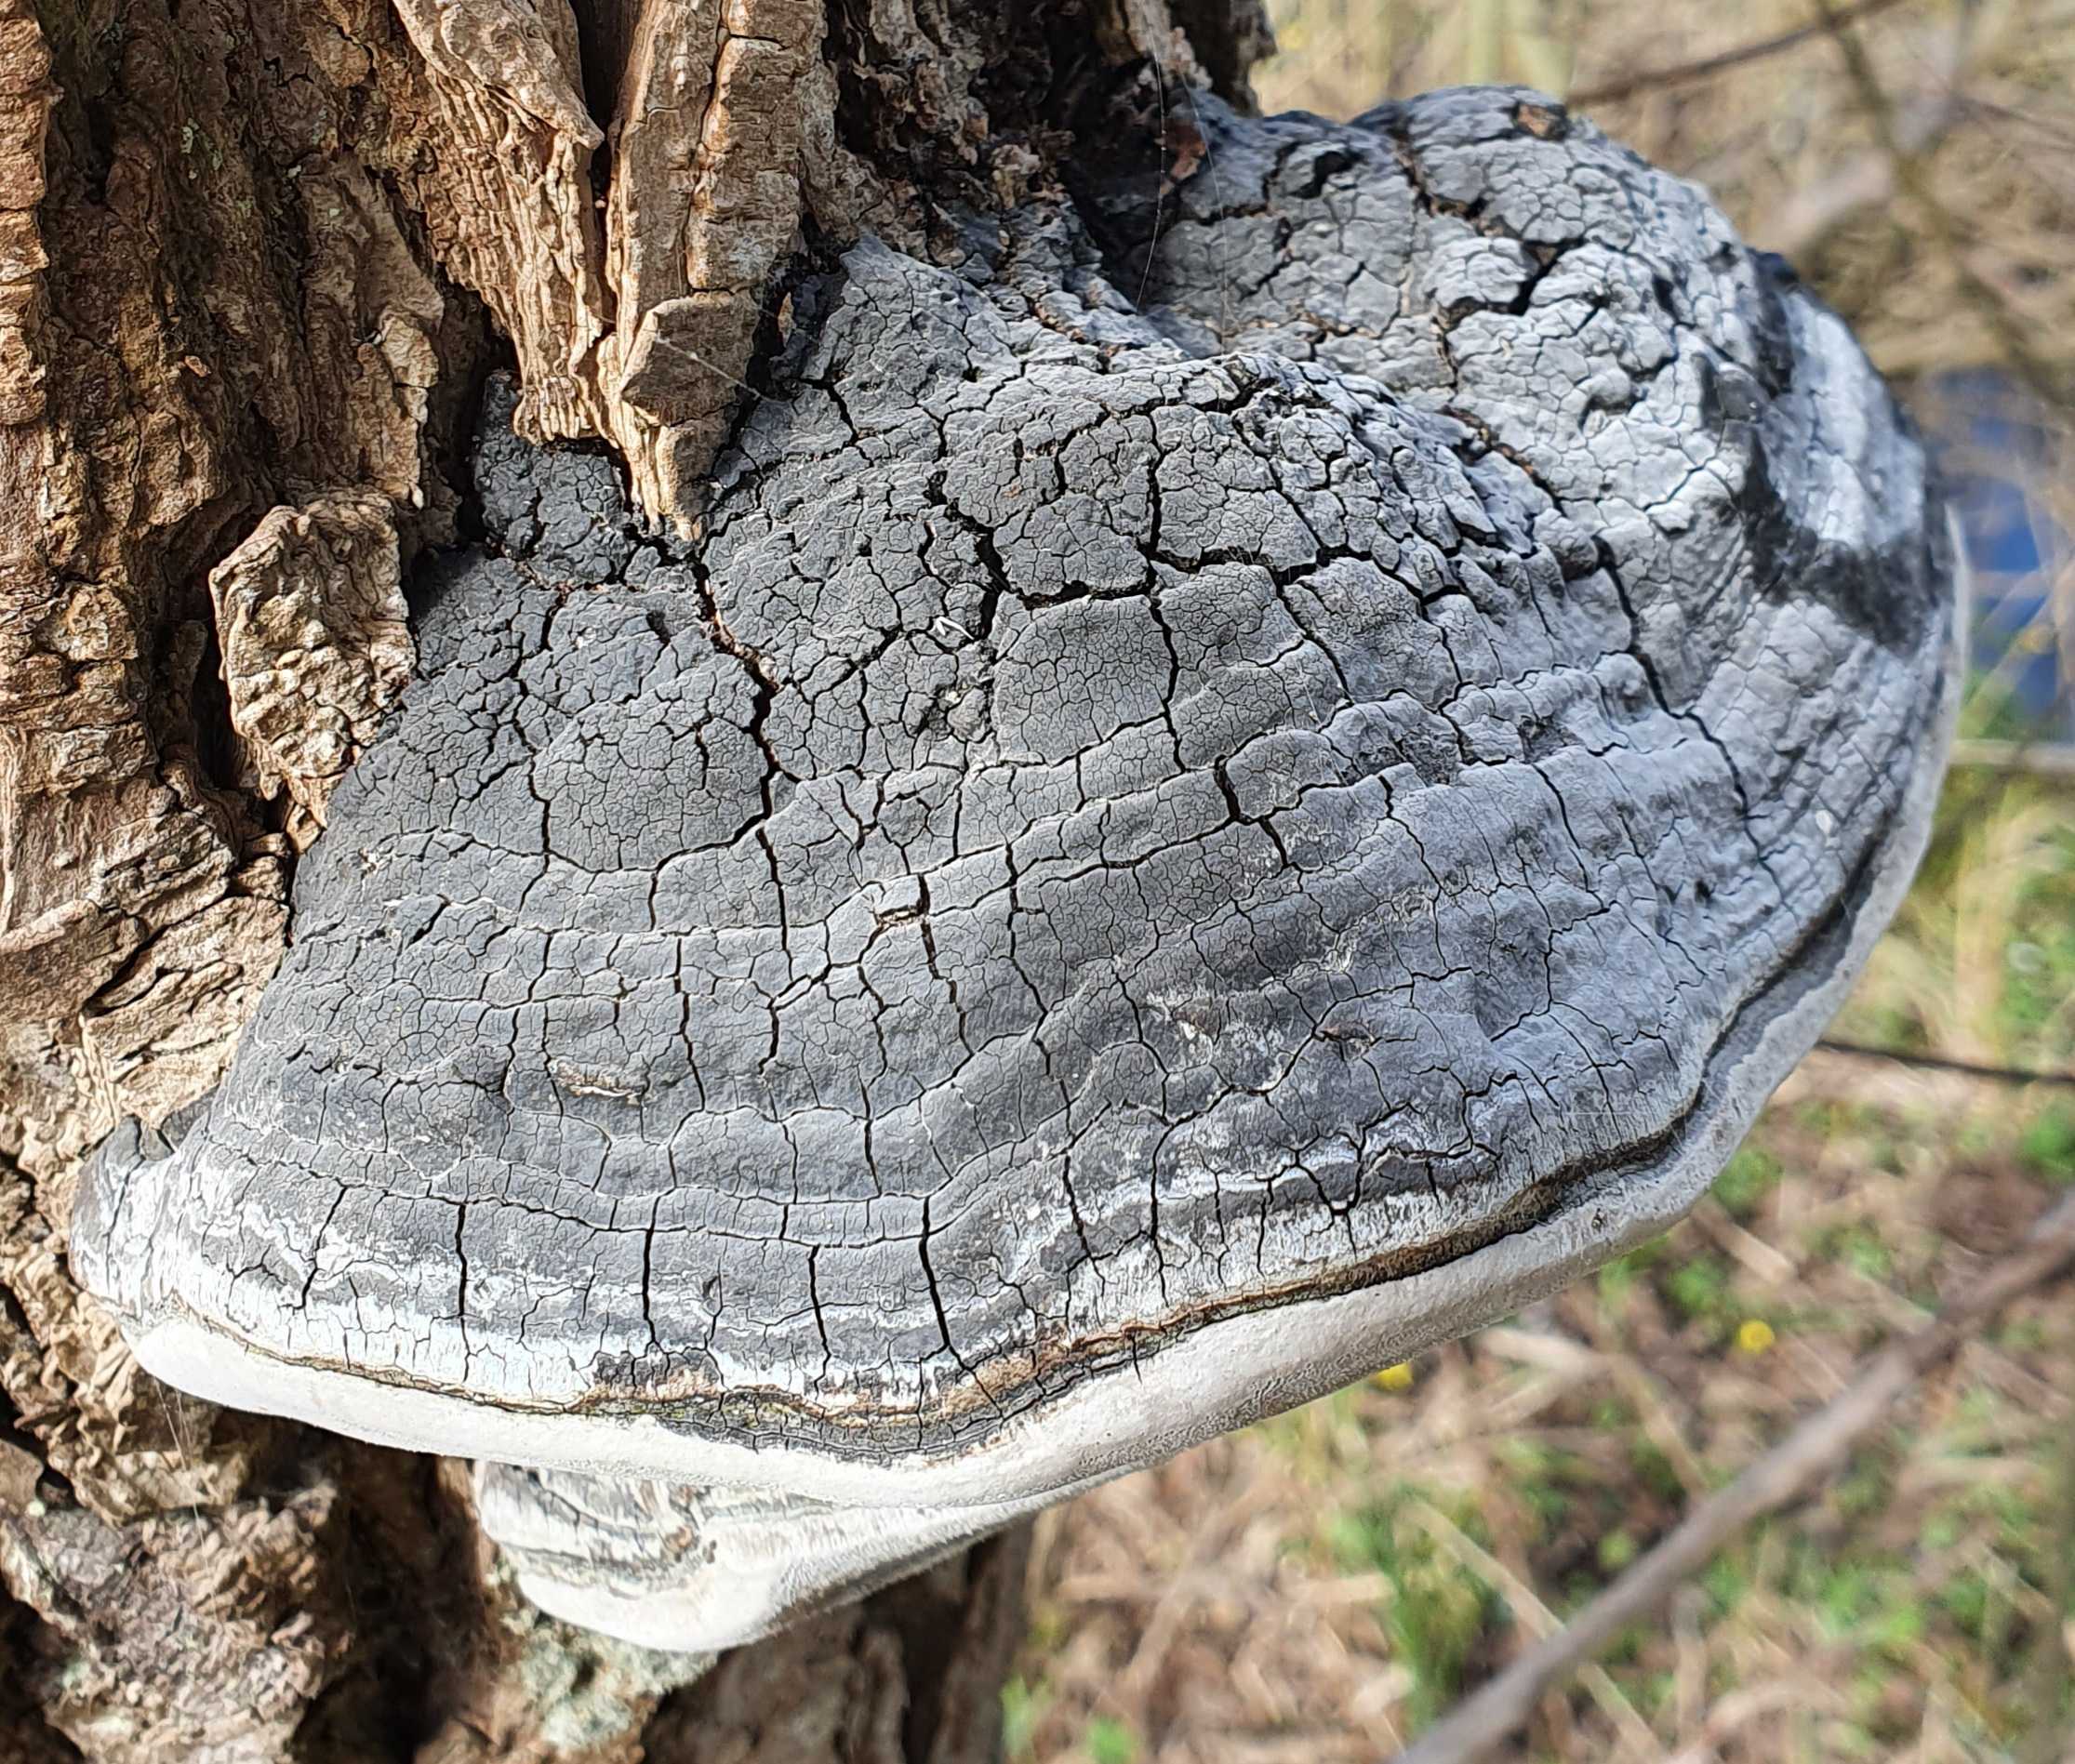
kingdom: Fungi
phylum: Basidiomycota
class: Agaricomycetes
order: Hymenochaetales
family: Hymenochaetaceae
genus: Phellinus
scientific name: Phellinus igniarius
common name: almindelig ildporesvamp
